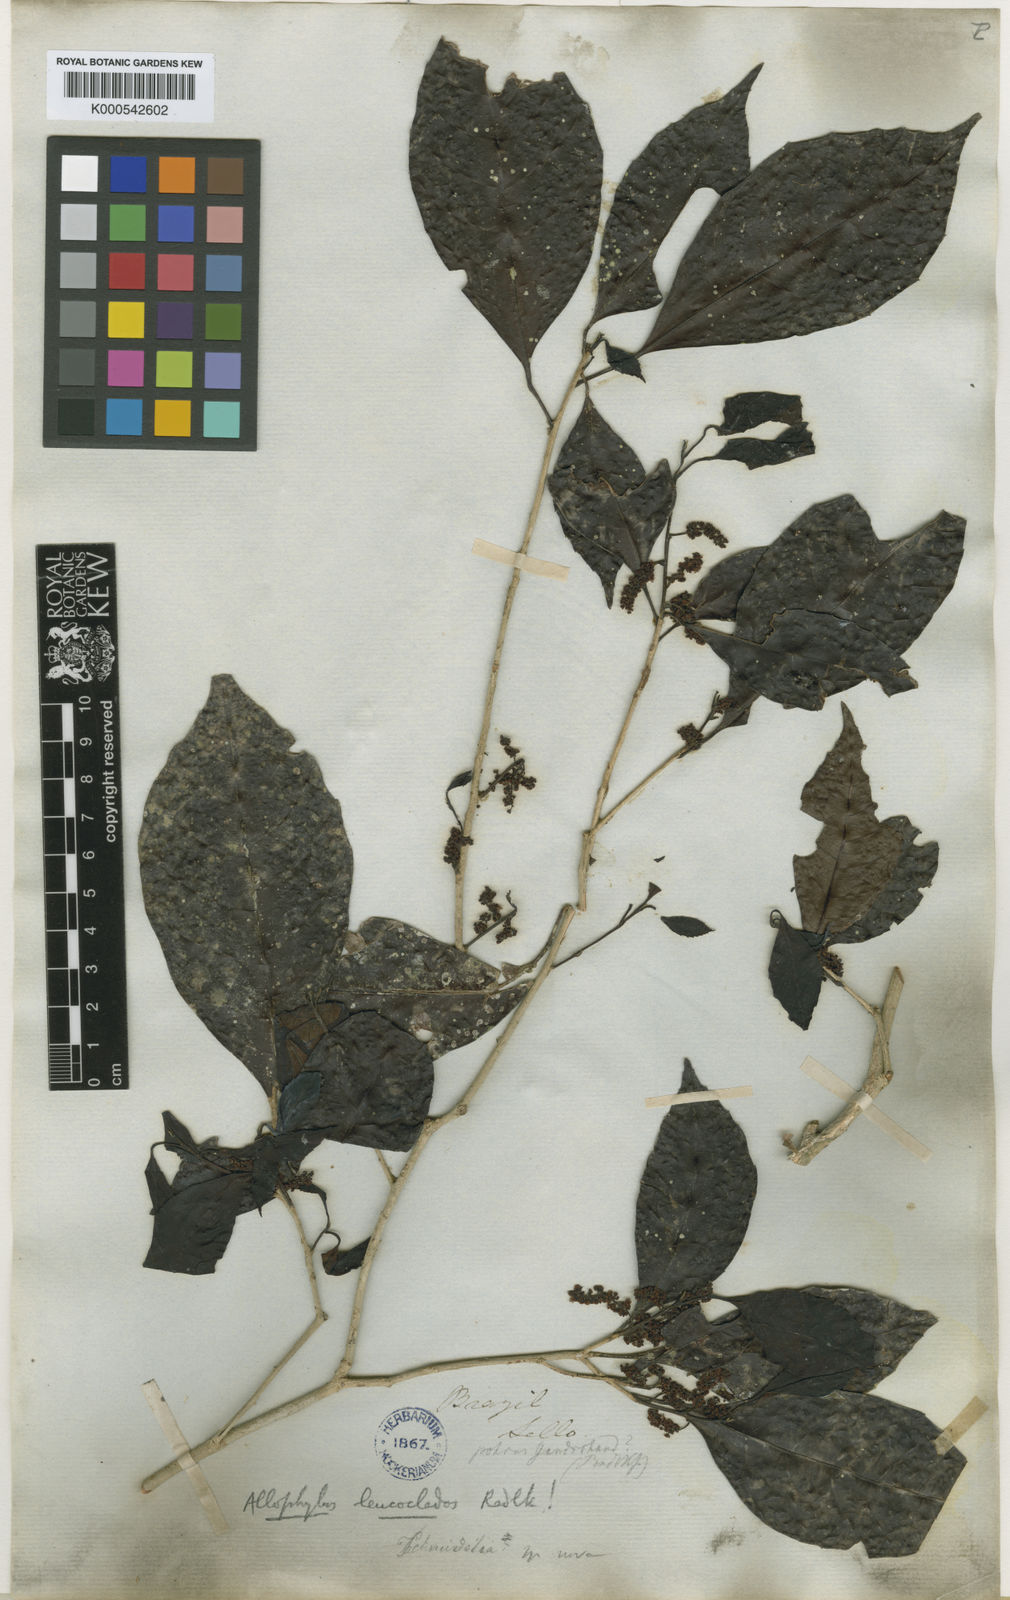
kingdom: Plantae
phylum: Tracheophyta
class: Magnoliopsida
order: Sapindales
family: Sapindaceae
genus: Allophylus
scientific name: Allophylus leucoclados
